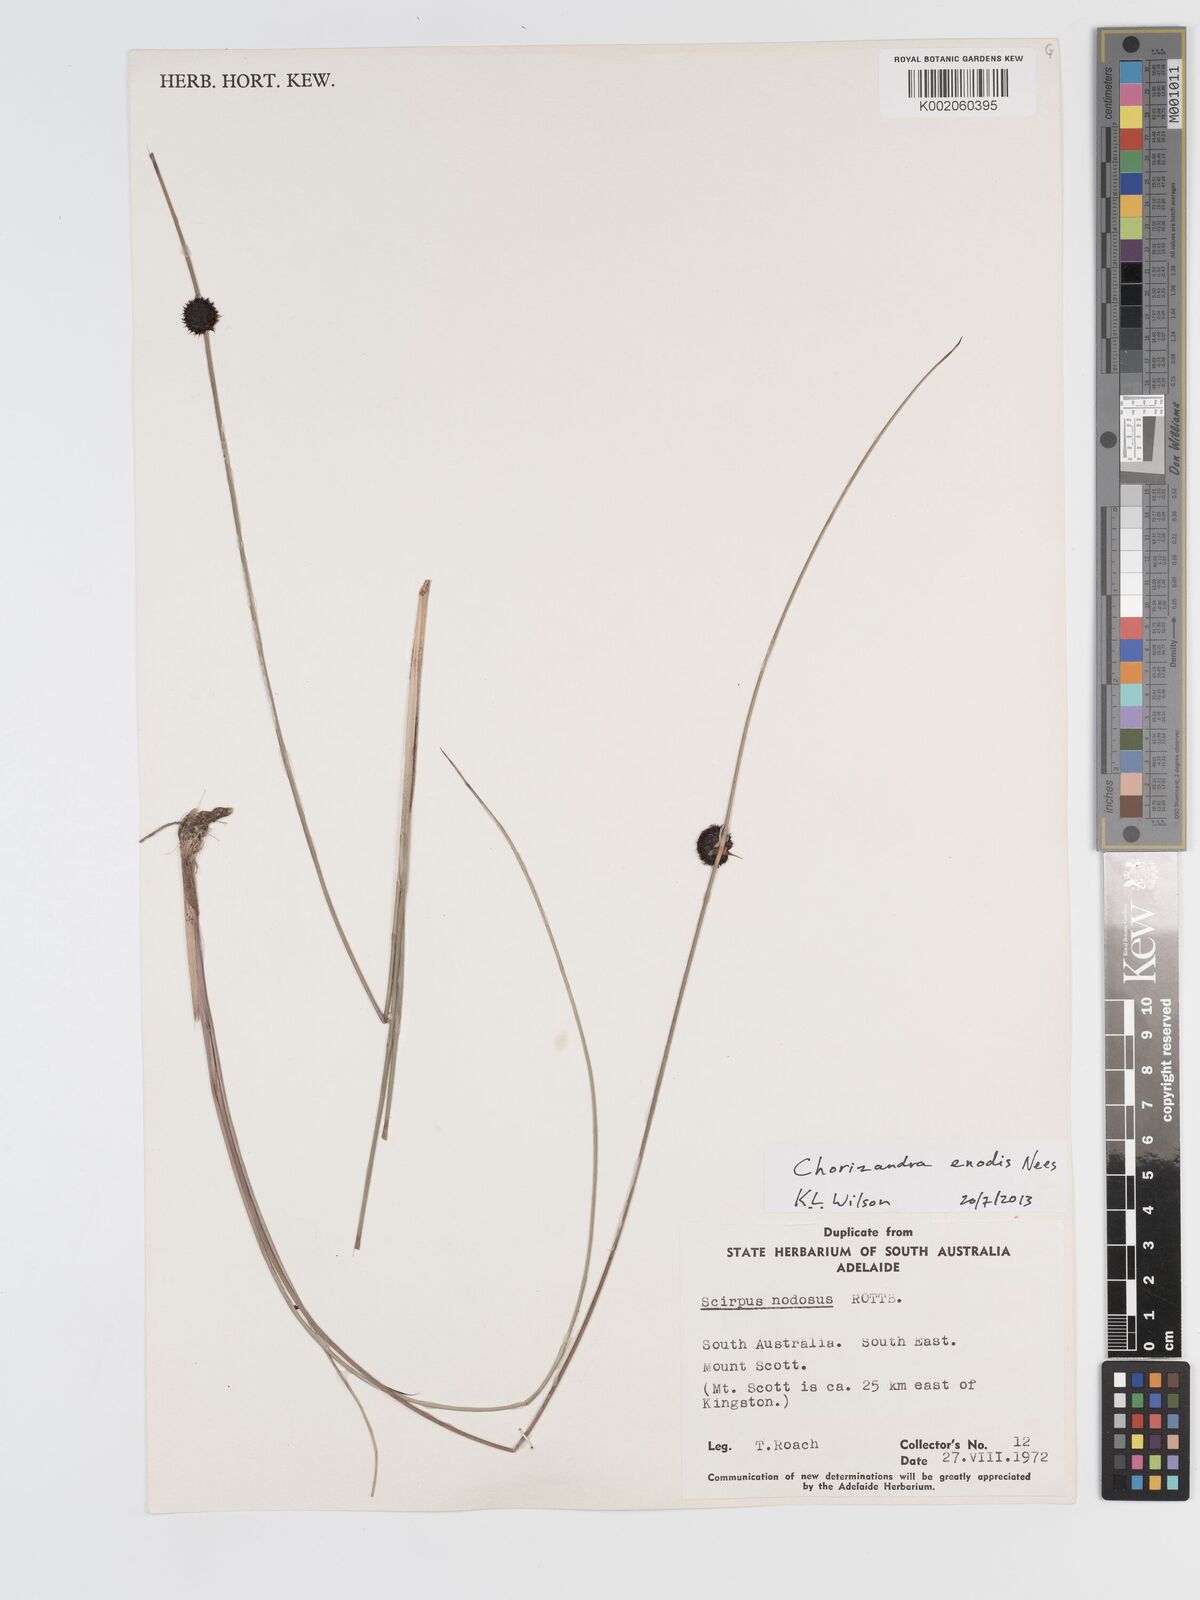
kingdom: Plantae
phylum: Tracheophyta
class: Liliopsida
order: Poales
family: Cyperaceae
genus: Chorizandra
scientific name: Chorizandra enodis
